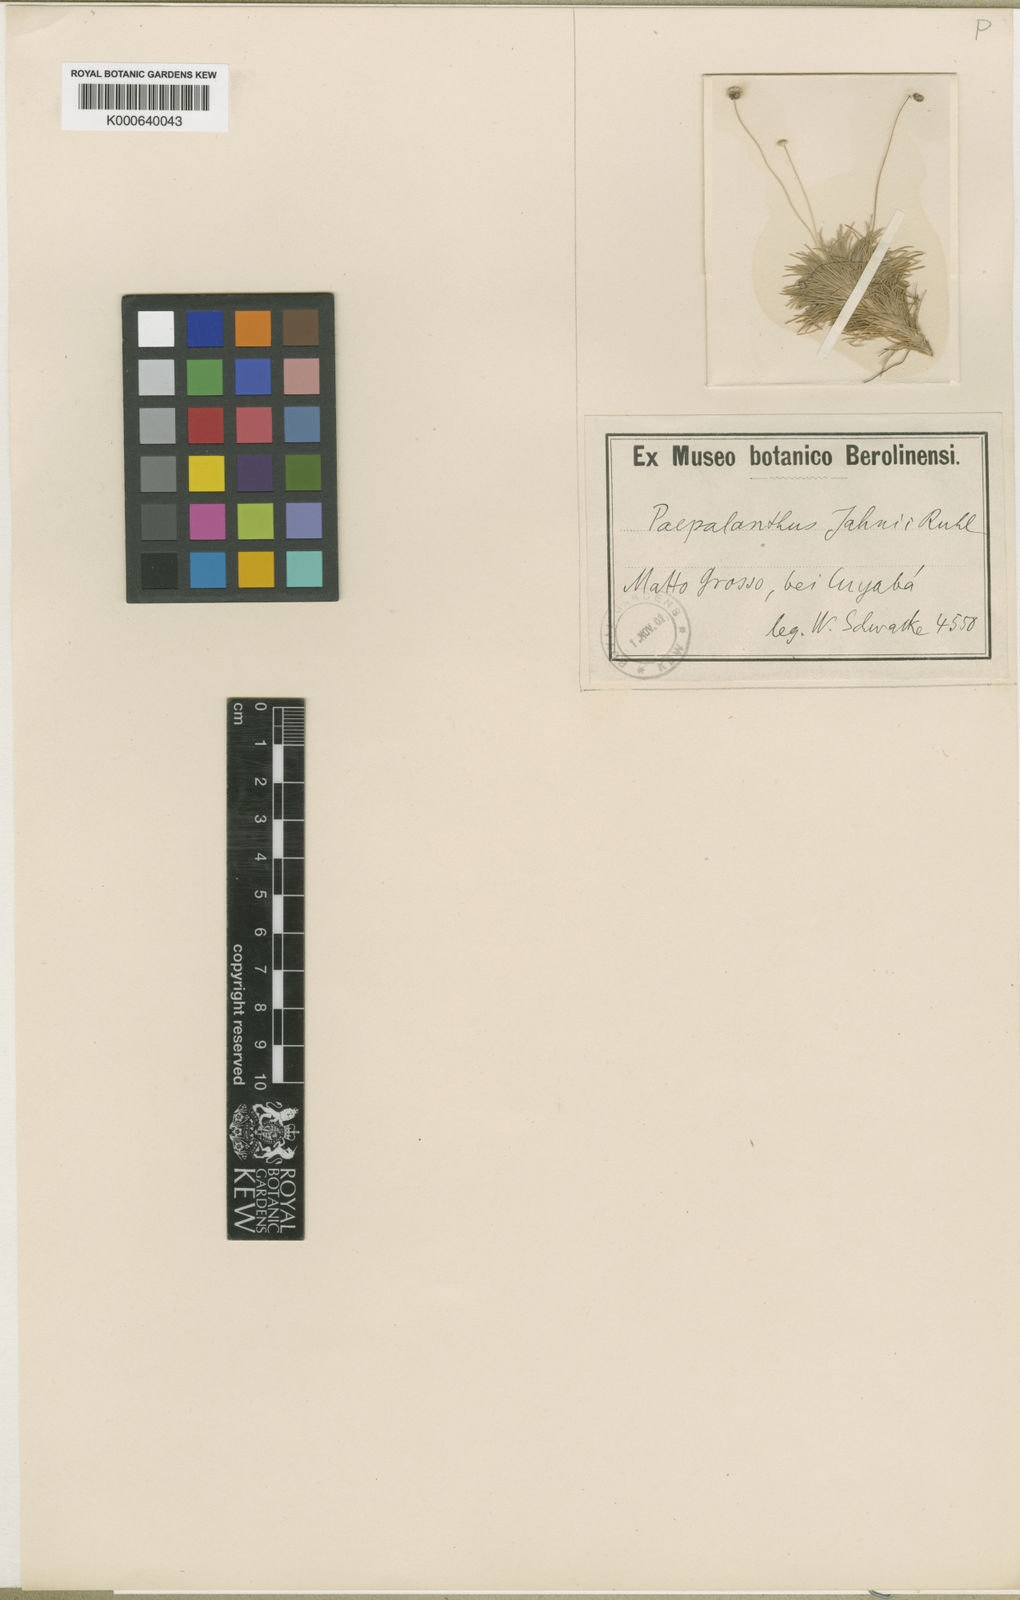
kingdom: Plantae
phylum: Tracheophyta
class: Liliopsida
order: Poales
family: Eriocaulaceae
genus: Paepalanthus
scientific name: Paepalanthus supinus
